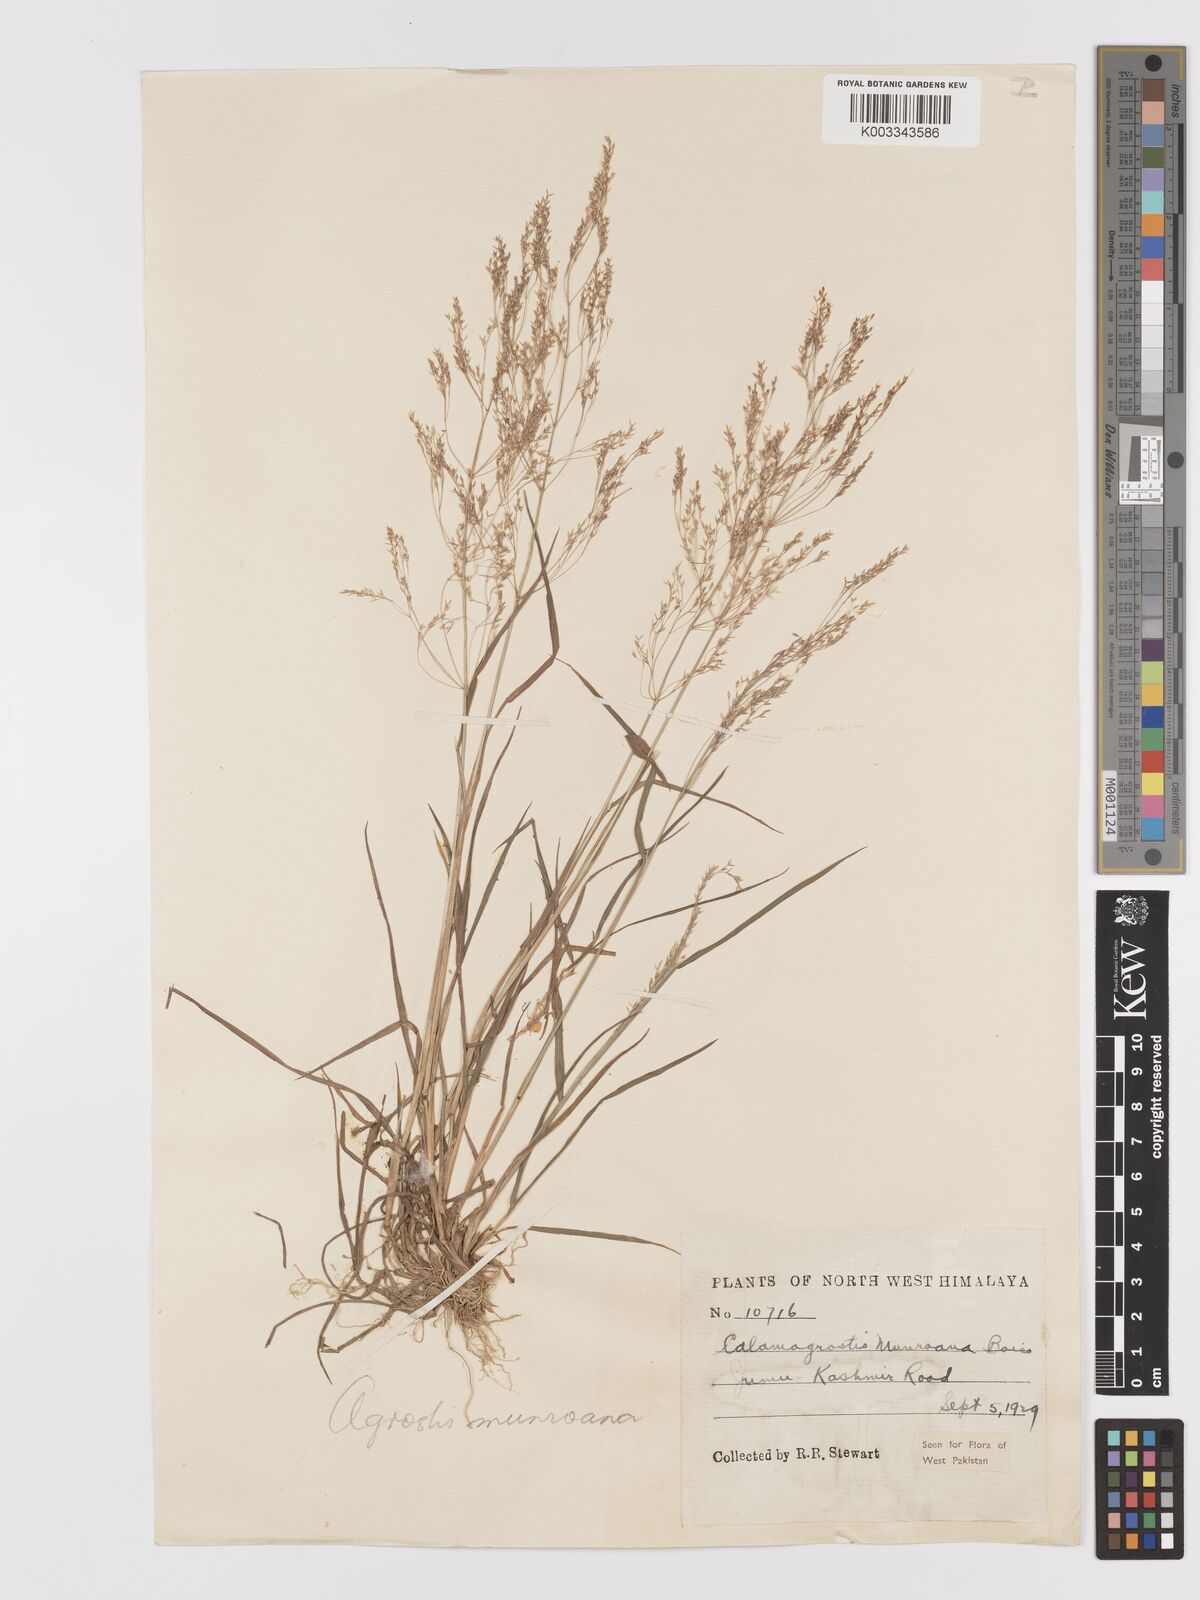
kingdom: Plantae
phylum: Tracheophyta
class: Liliopsida
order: Poales
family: Poaceae
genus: Agrostis
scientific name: Agrostis munroana
